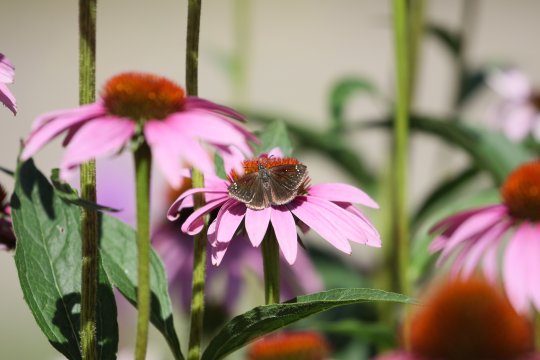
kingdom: Animalia
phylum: Arthropoda
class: Insecta
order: Lepidoptera
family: Hesperiidae
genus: Pholisora
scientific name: Pholisora catullus
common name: Common Sootywing
